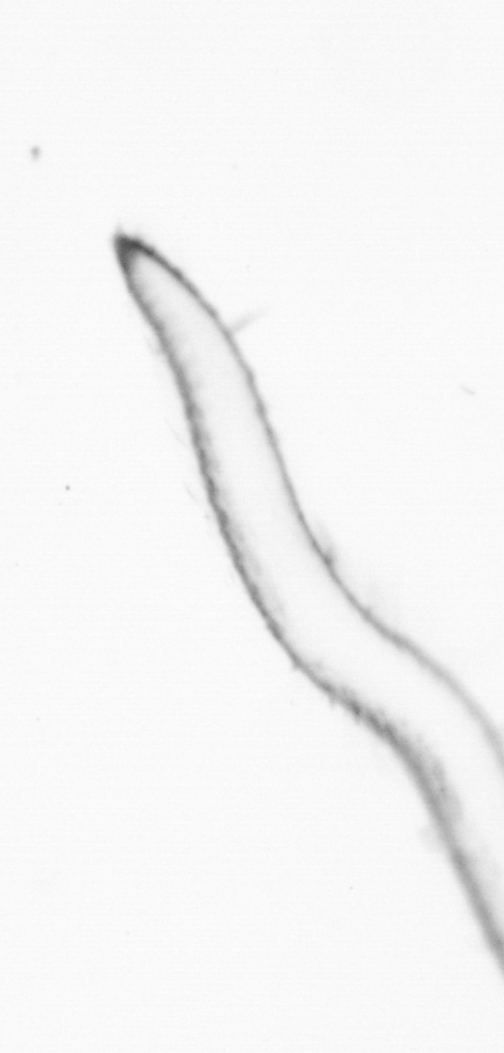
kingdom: Animalia
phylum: Annelida
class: Polychaeta
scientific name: Polychaeta
